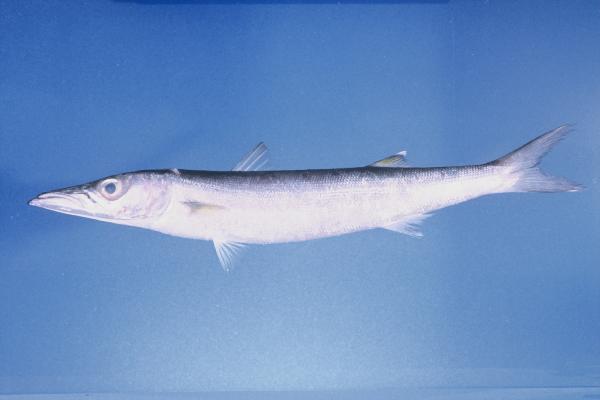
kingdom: Animalia
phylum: Chordata
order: Perciformes
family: Sphyraenidae
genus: Sphyraena
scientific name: Sphyraena forsteri
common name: Bigeye barracuda
